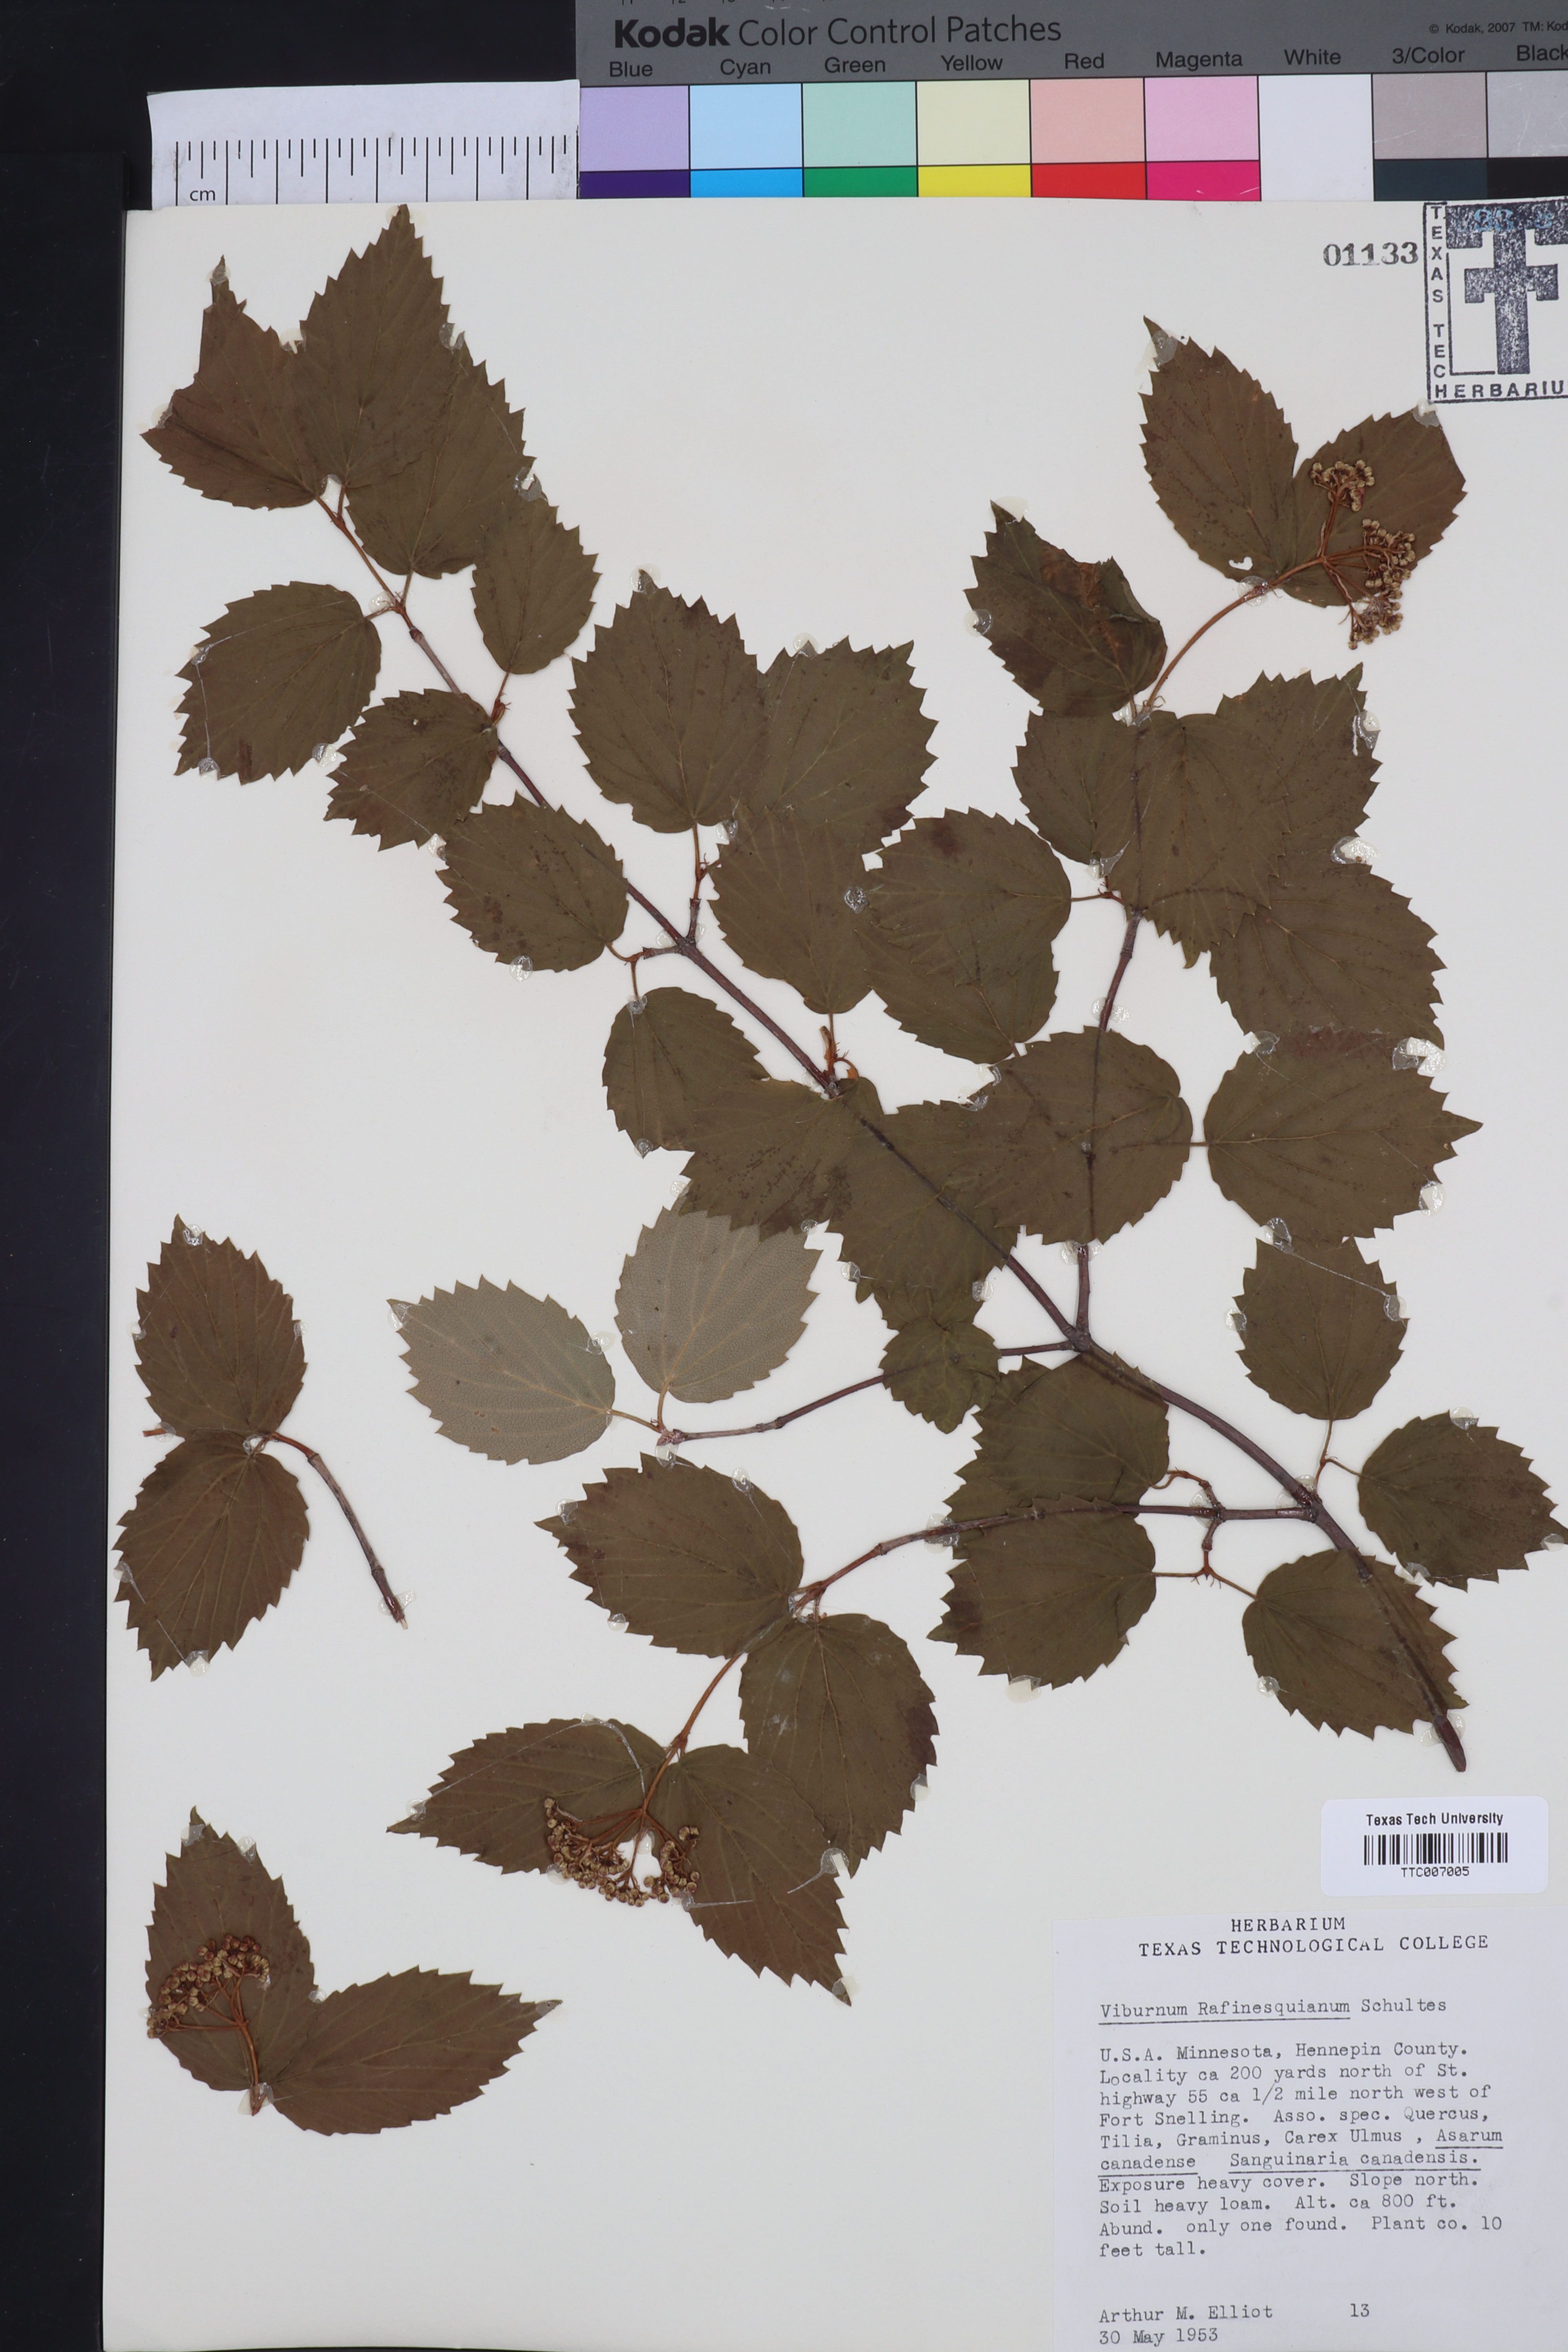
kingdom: Plantae
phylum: Tracheophyta
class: Magnoliopsida
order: Dipsacales
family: Viburnaceae
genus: Viburnum
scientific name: Viburnum rafinesquianum
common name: Downy arrow-wood
